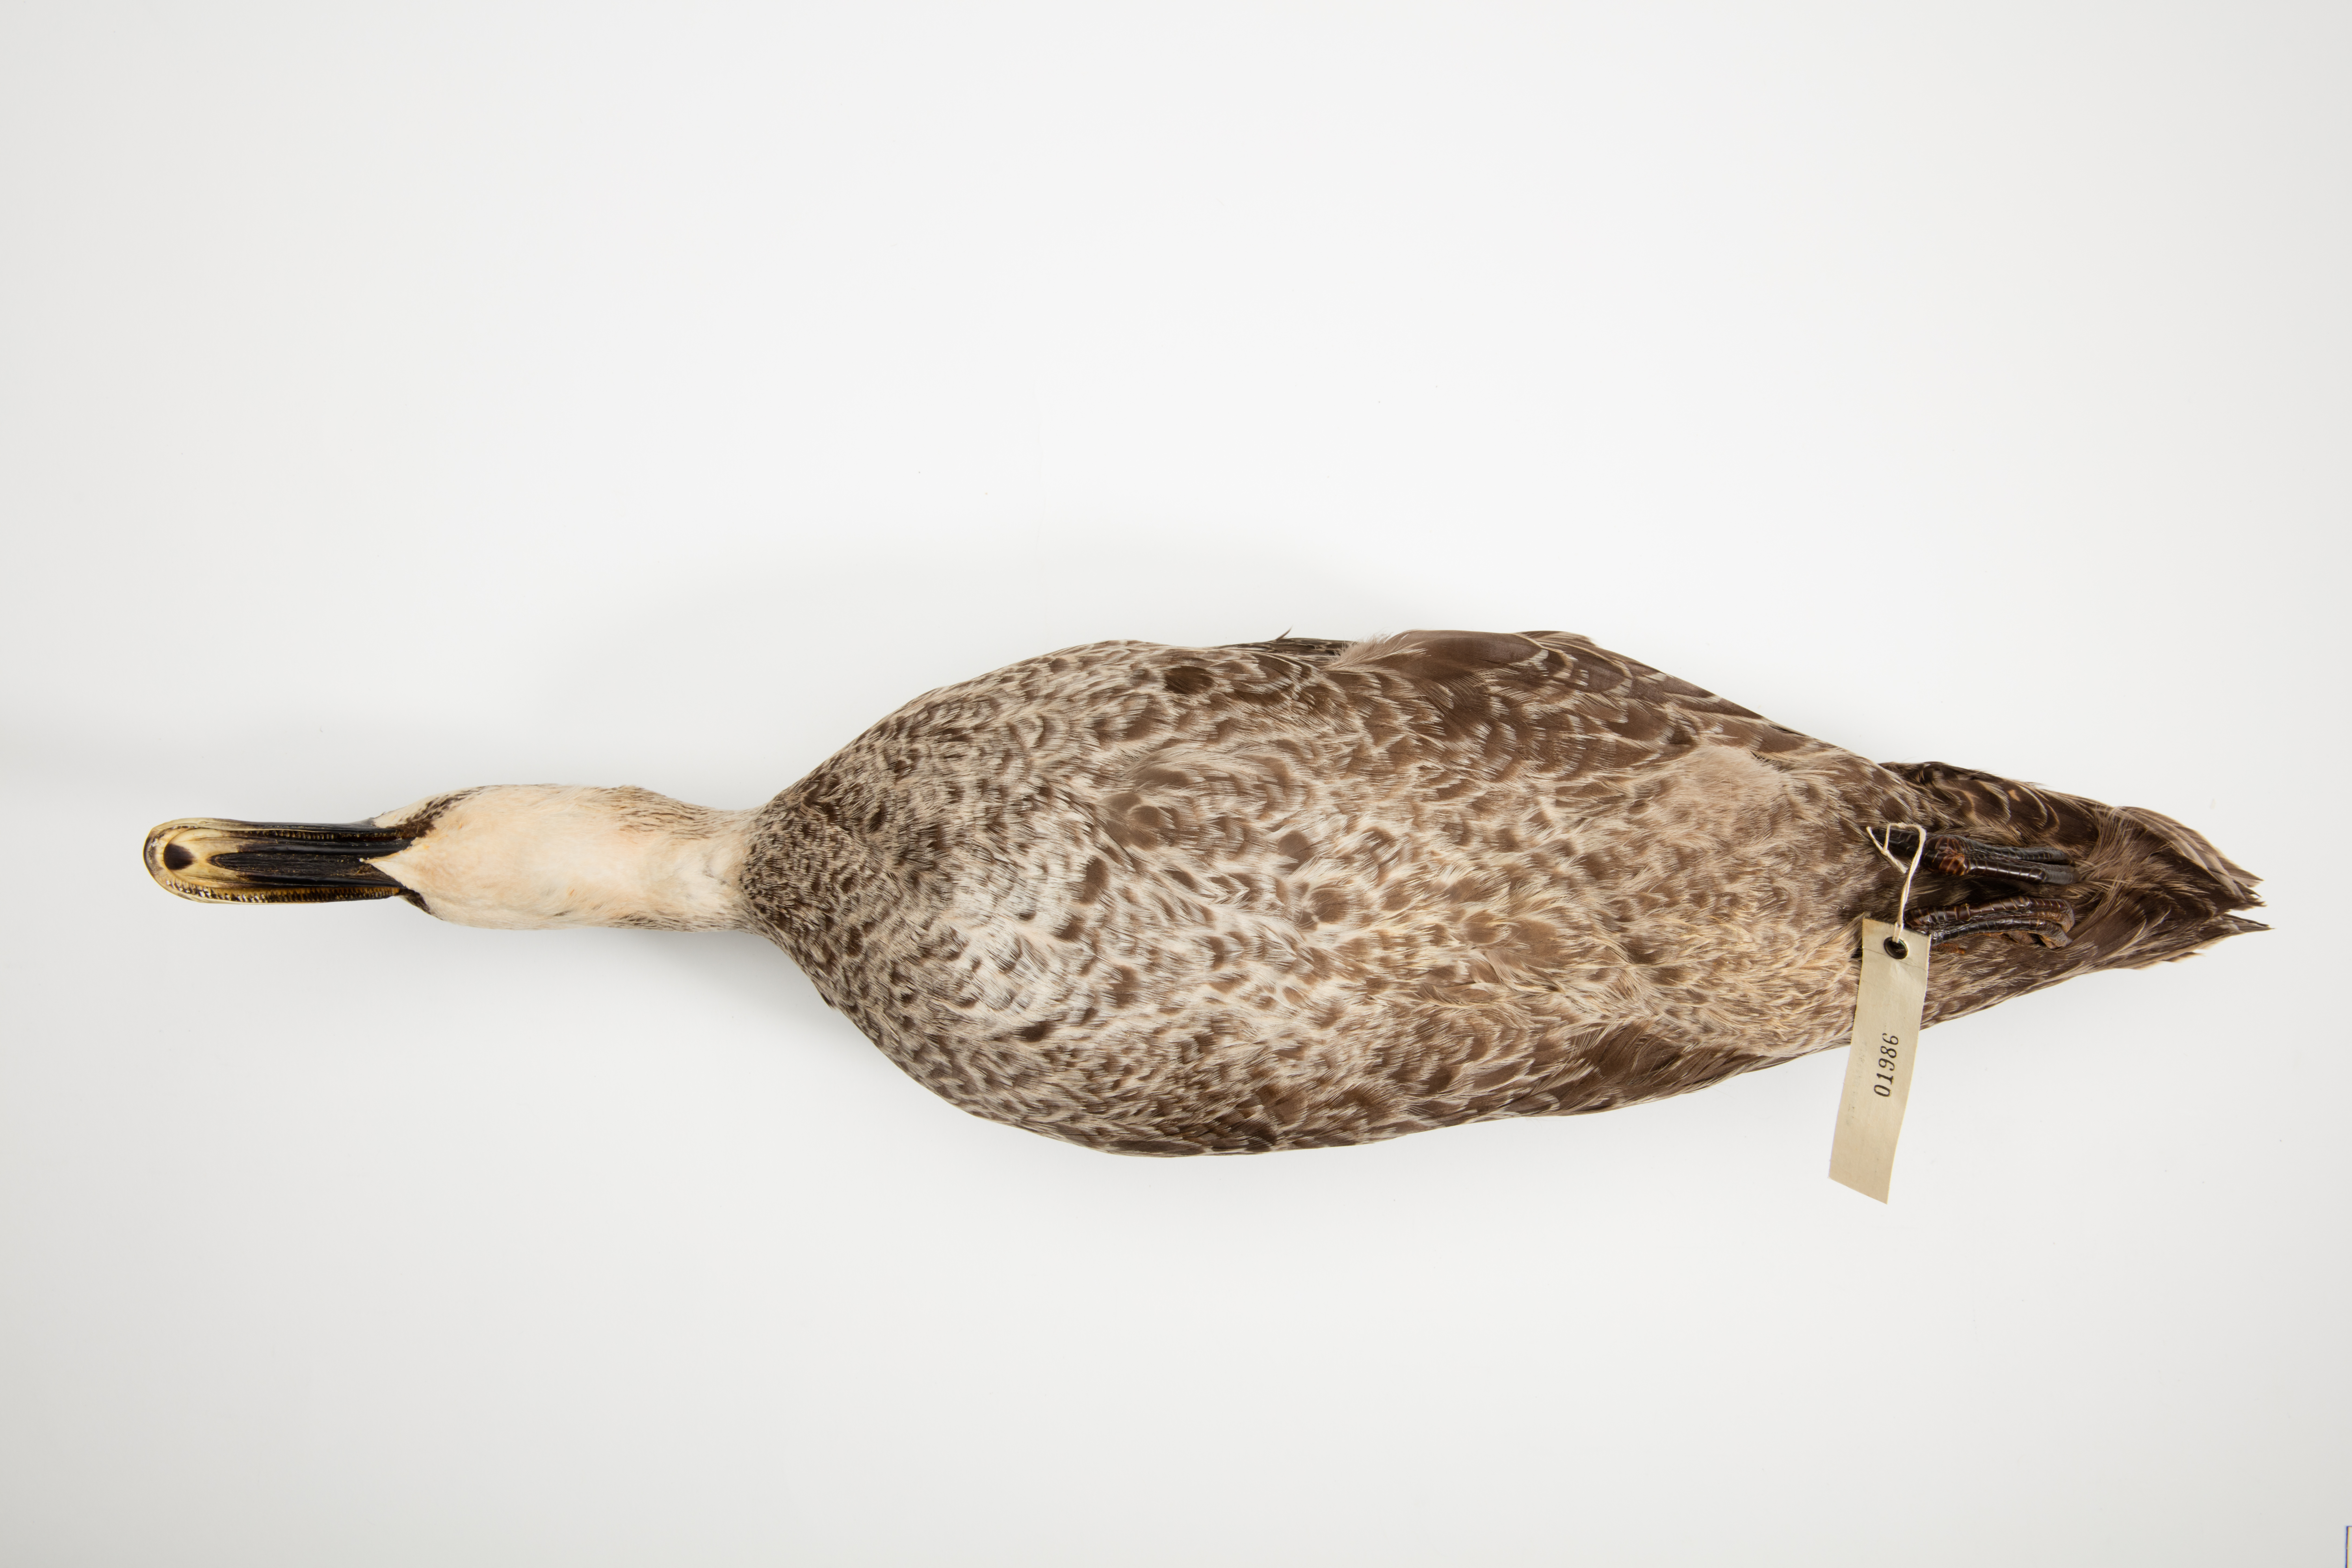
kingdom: Animalia
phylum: Chordata
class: Aves
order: Anseriformes
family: Anatidae
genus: Anas
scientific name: Anas superciliosa
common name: Pacific black duck
